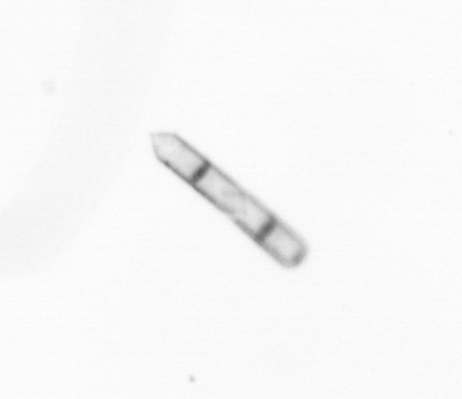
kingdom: Chromista
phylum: Ochrophyta
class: Bacillariophyceae
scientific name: Bacillariophyceae
